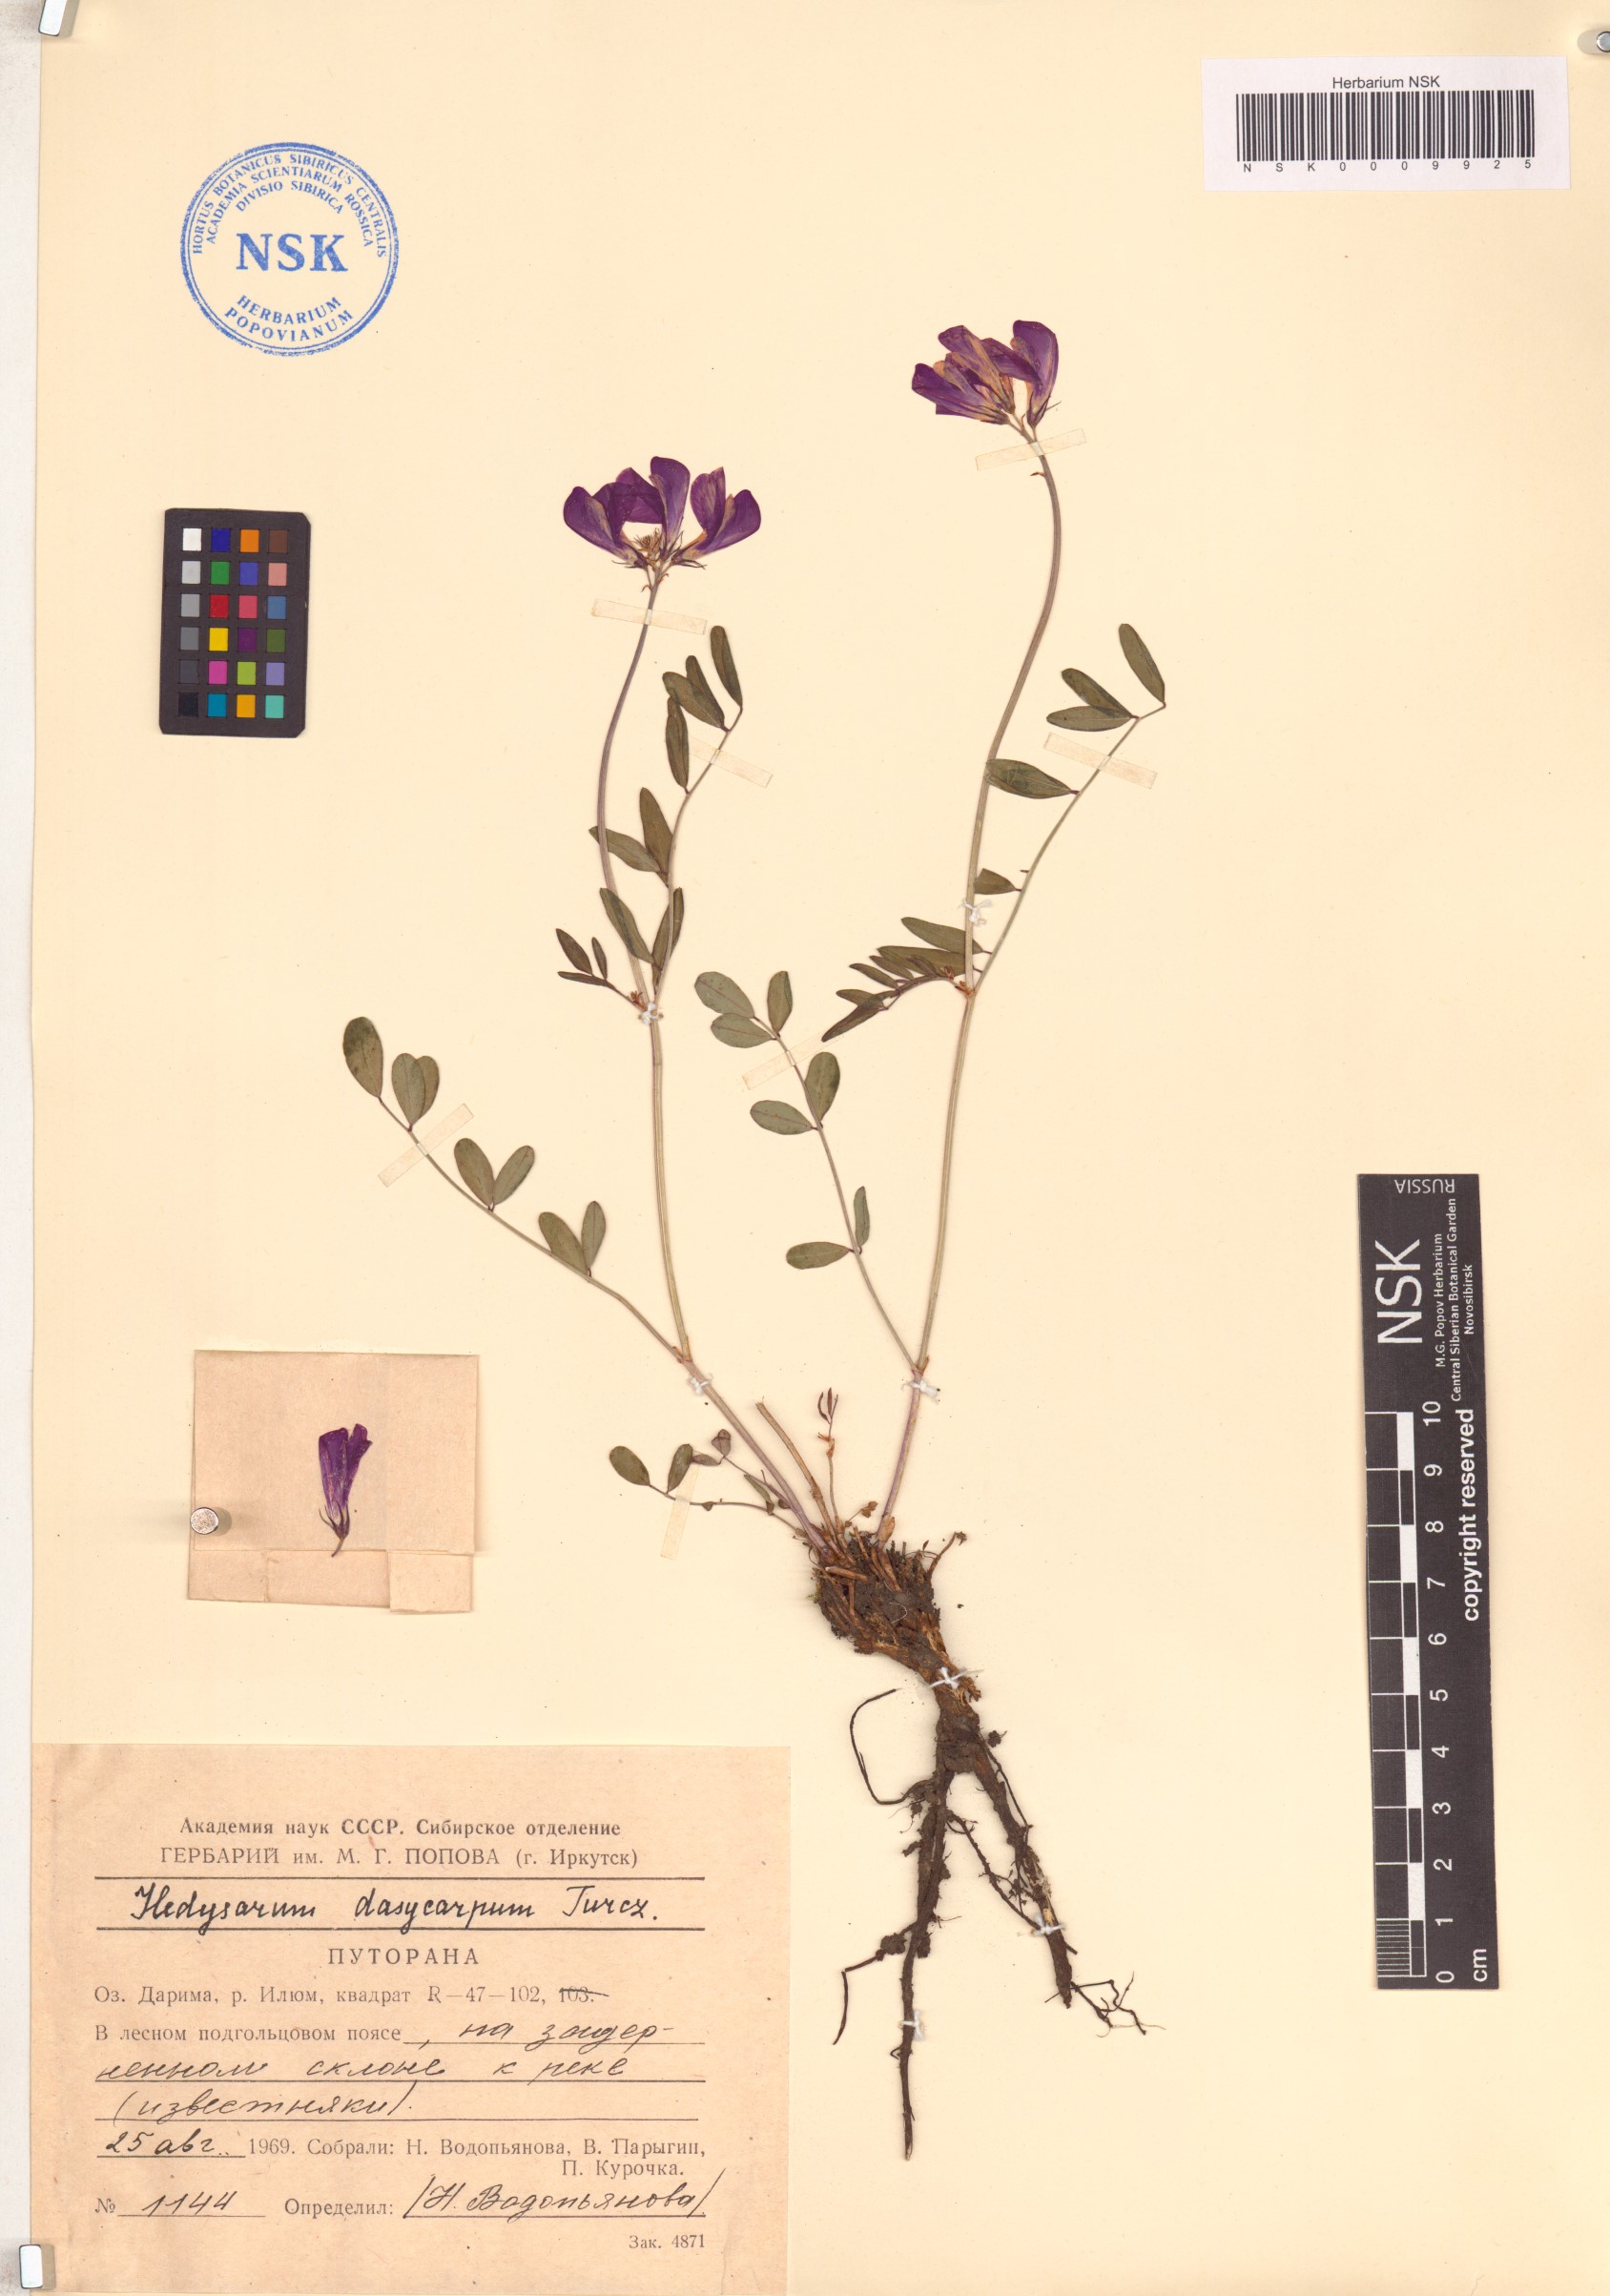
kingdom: Plantae
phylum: Tracheophyta
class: Magnoliopsida
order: Fabales
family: Fabaceae
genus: Hedysarum
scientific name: Hedysarum dasycarpum
